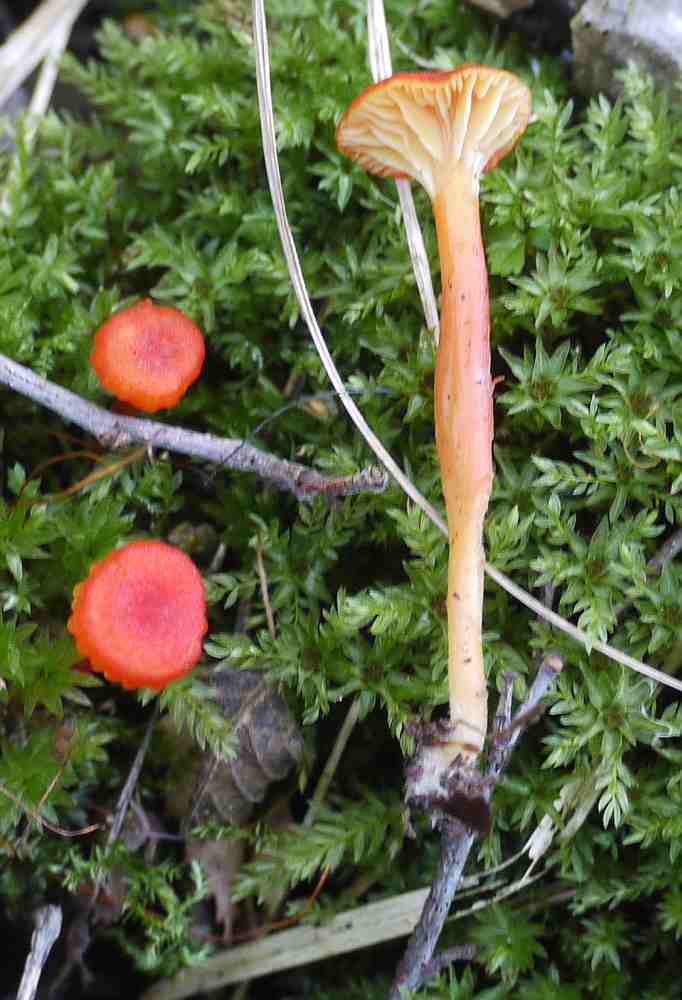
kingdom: Fungi
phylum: Basidiomycota
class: Agaricomycetes
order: Agaricales
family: Hygrophoraceae
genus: Hygrocybe
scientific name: Hygrocybe cantharellus
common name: kantarel-vokshat
